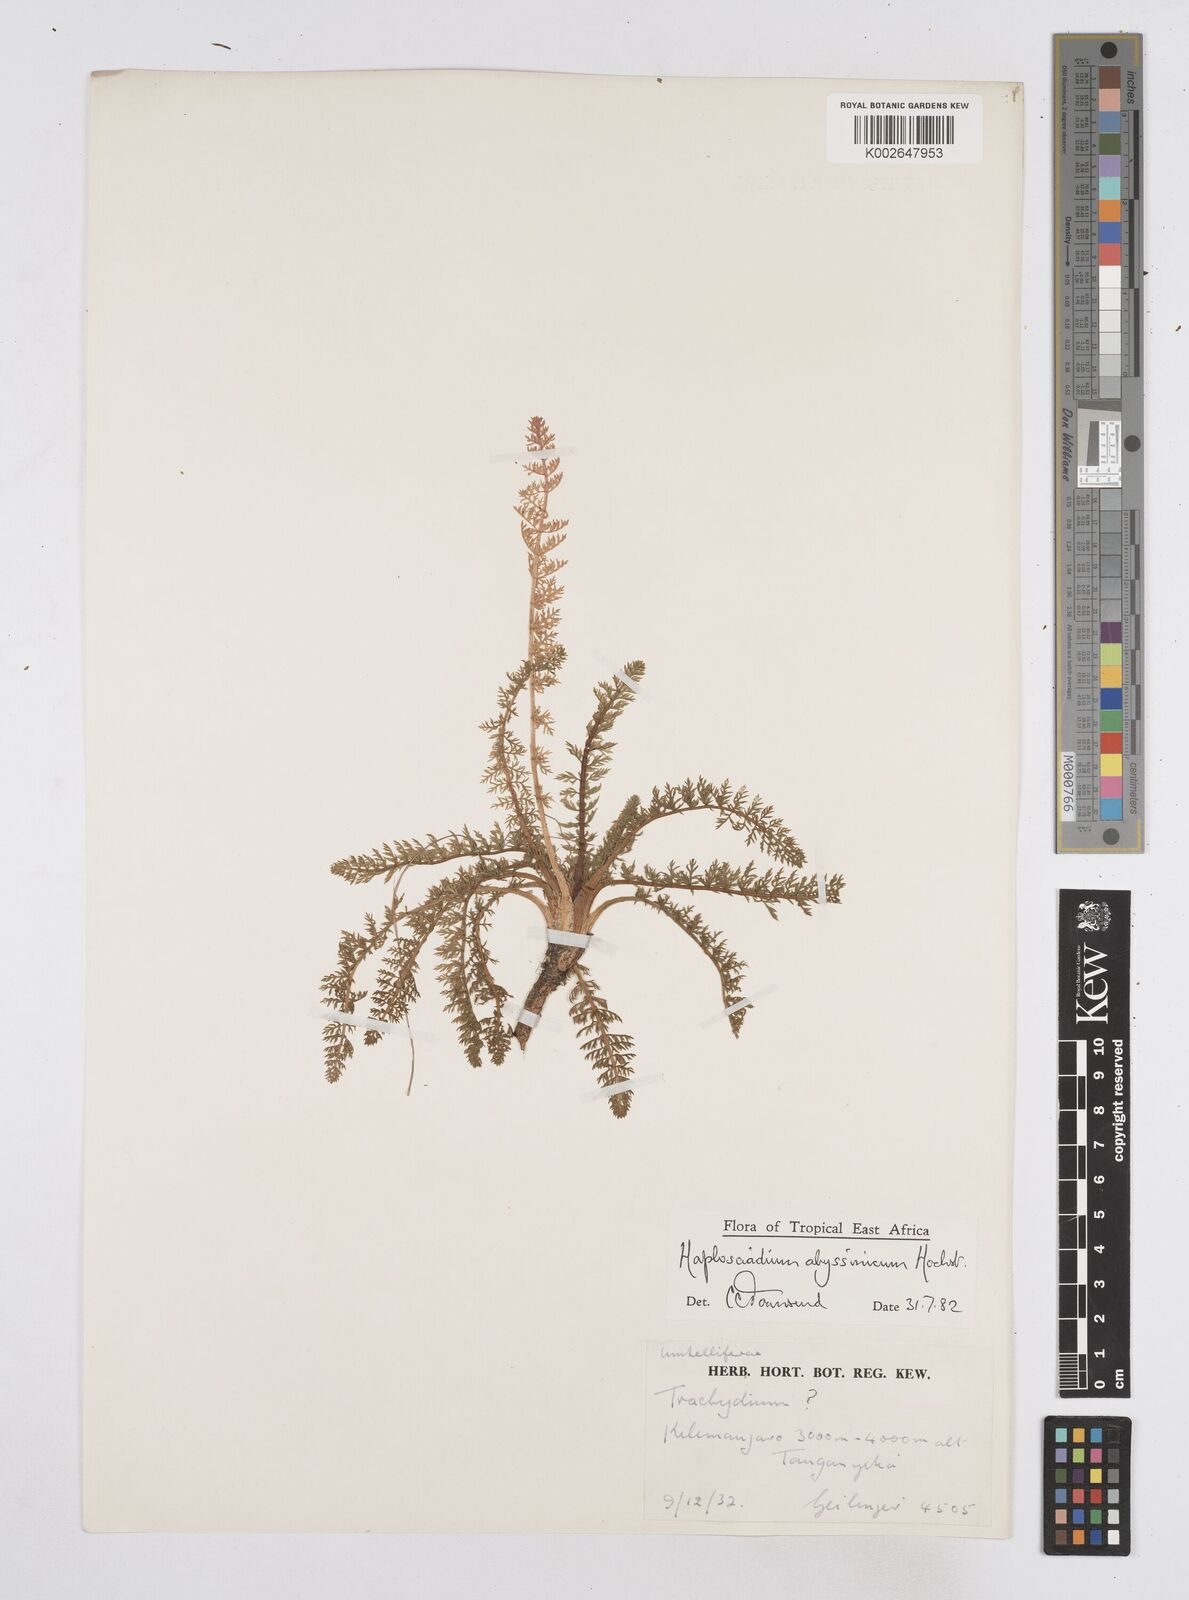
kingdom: Plantae
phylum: Tracheophyta
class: Magnoliopsida
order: Apiales
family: Apiaceae
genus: Haplosciadium
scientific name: Haplosciadium abyssinicum
